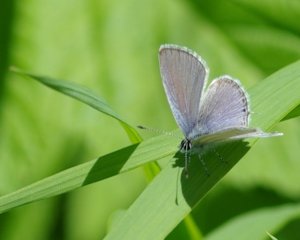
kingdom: Animalia
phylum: Arthropoda
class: Insecta
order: Lepidoptera
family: Lycaenidae
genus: Elkalyce
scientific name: Elkalyce amyntula
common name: Western Tailed-Blue
